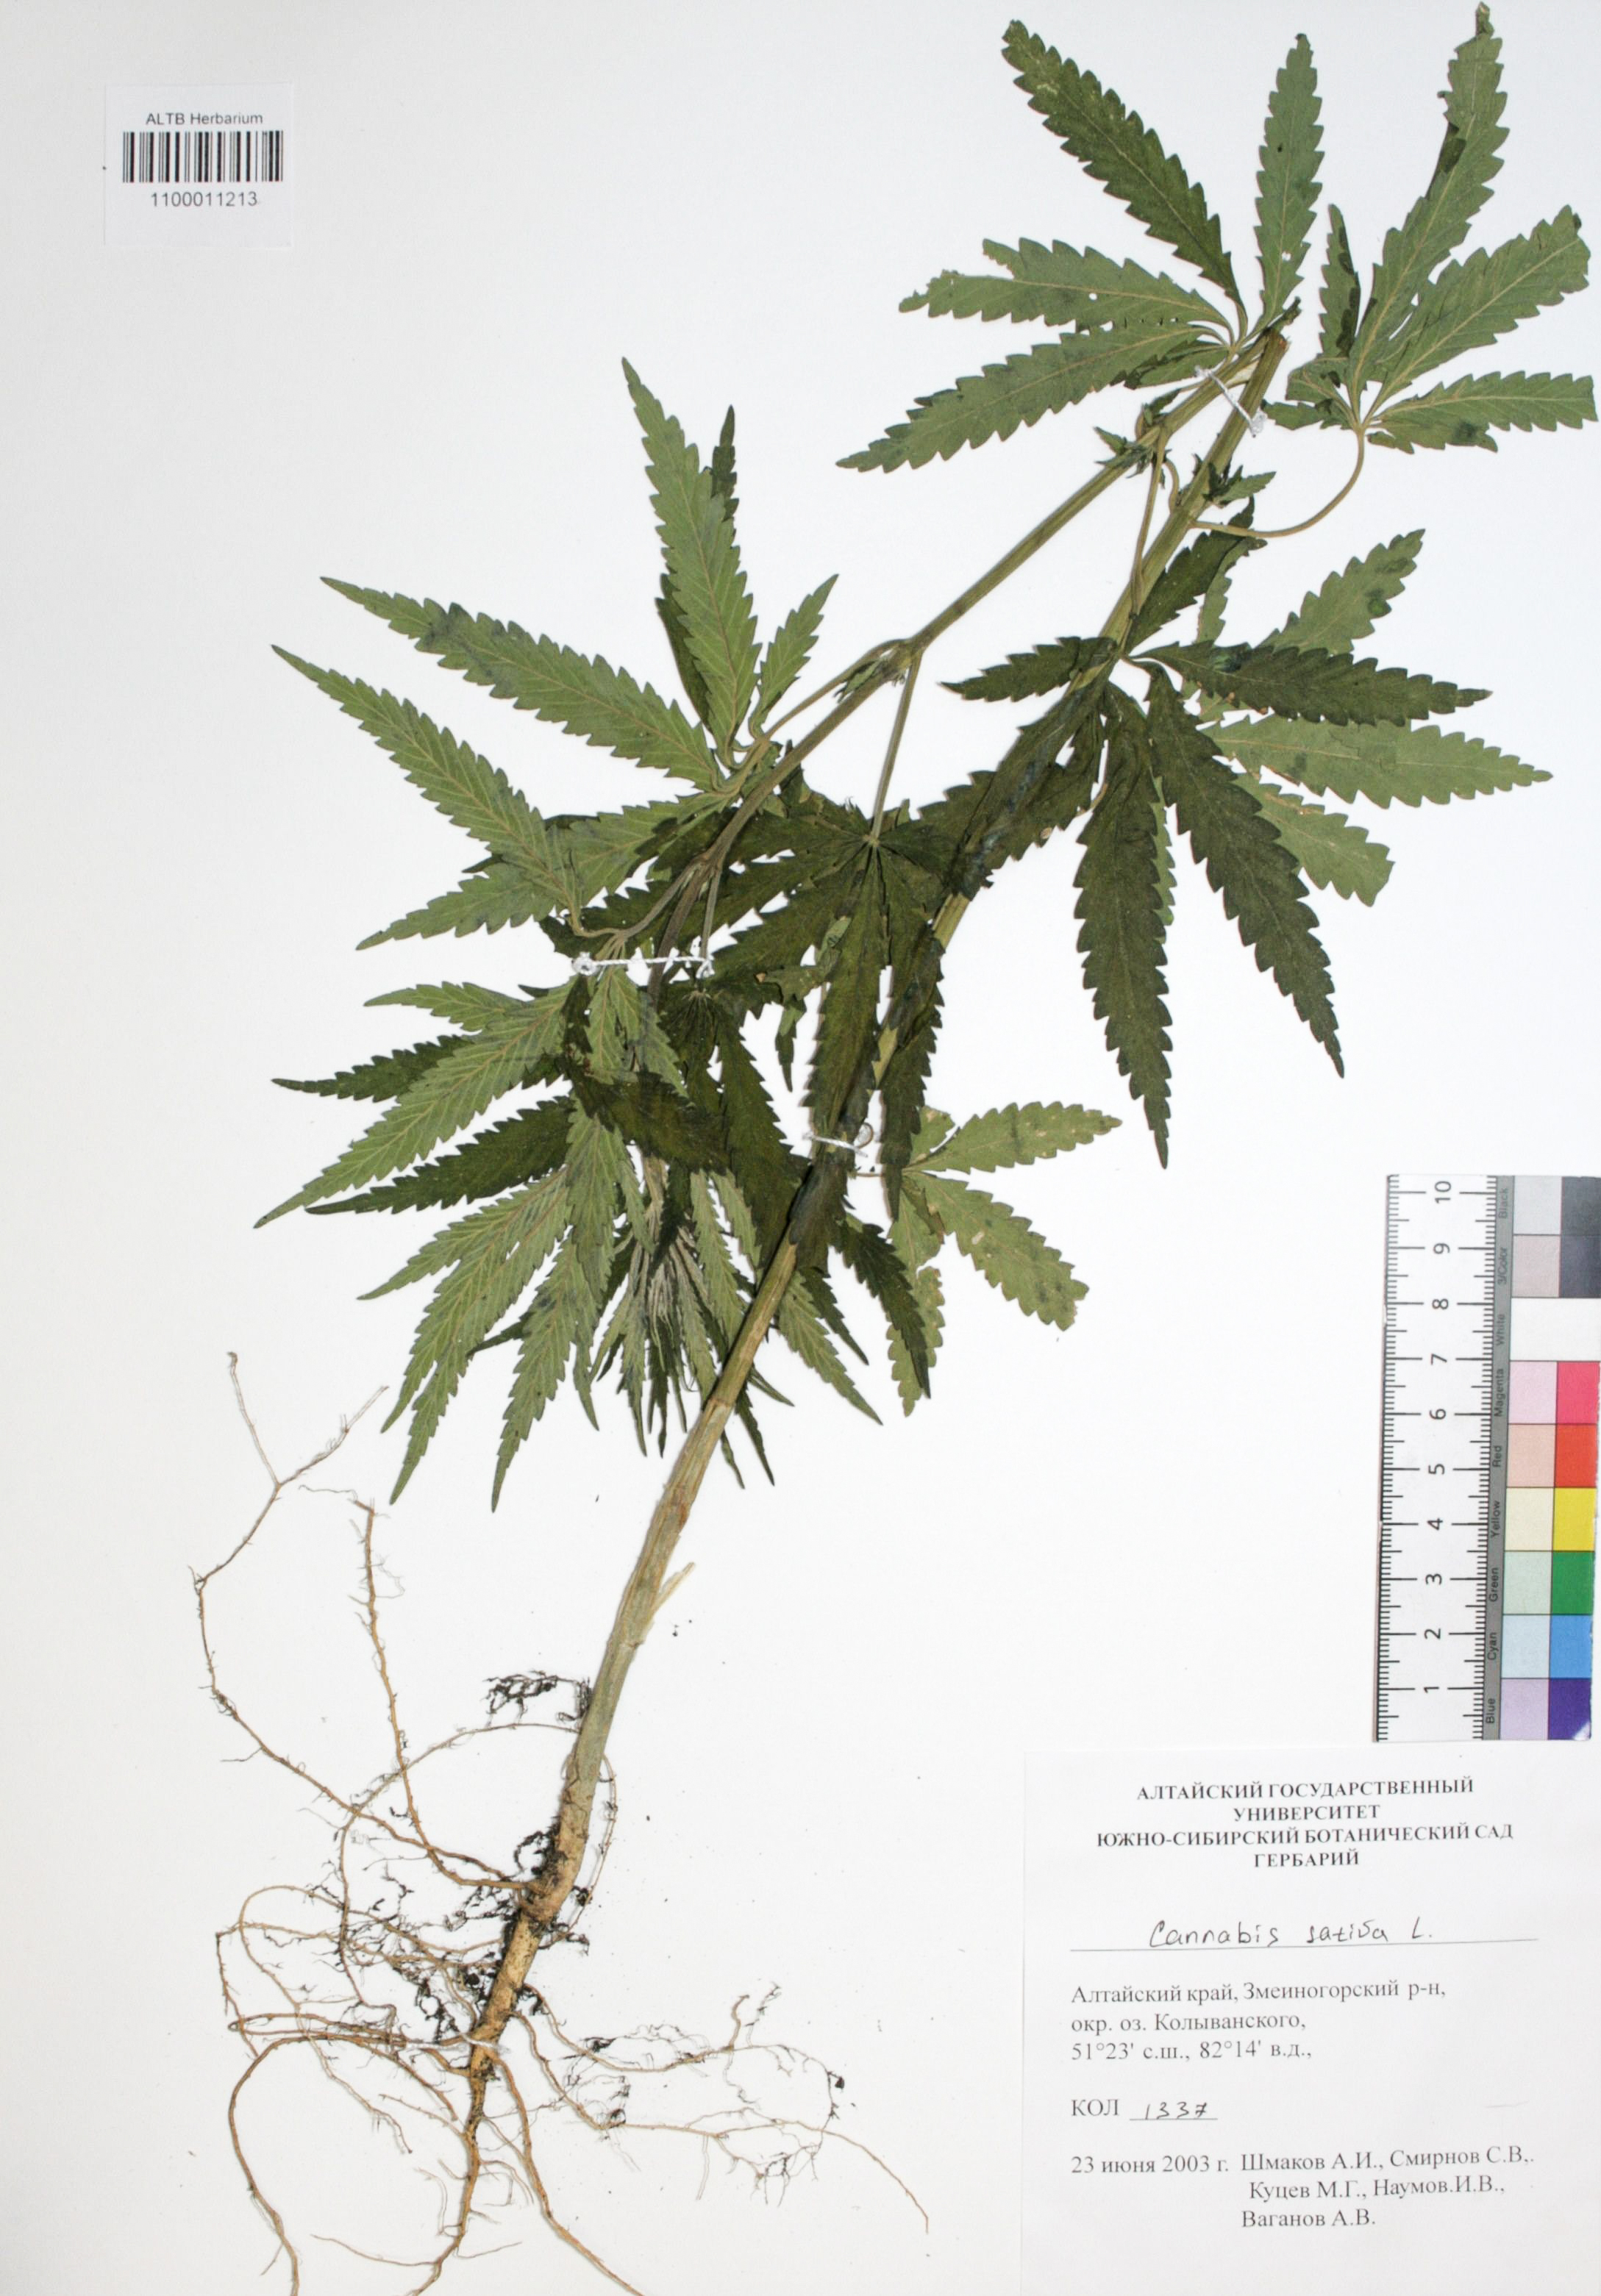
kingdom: Plantae
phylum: Tracheophyta
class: Magnoliopsida
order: Rosales
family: Cannabaceae
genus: Cannabis
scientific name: Cannabis sativa
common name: Hemp
